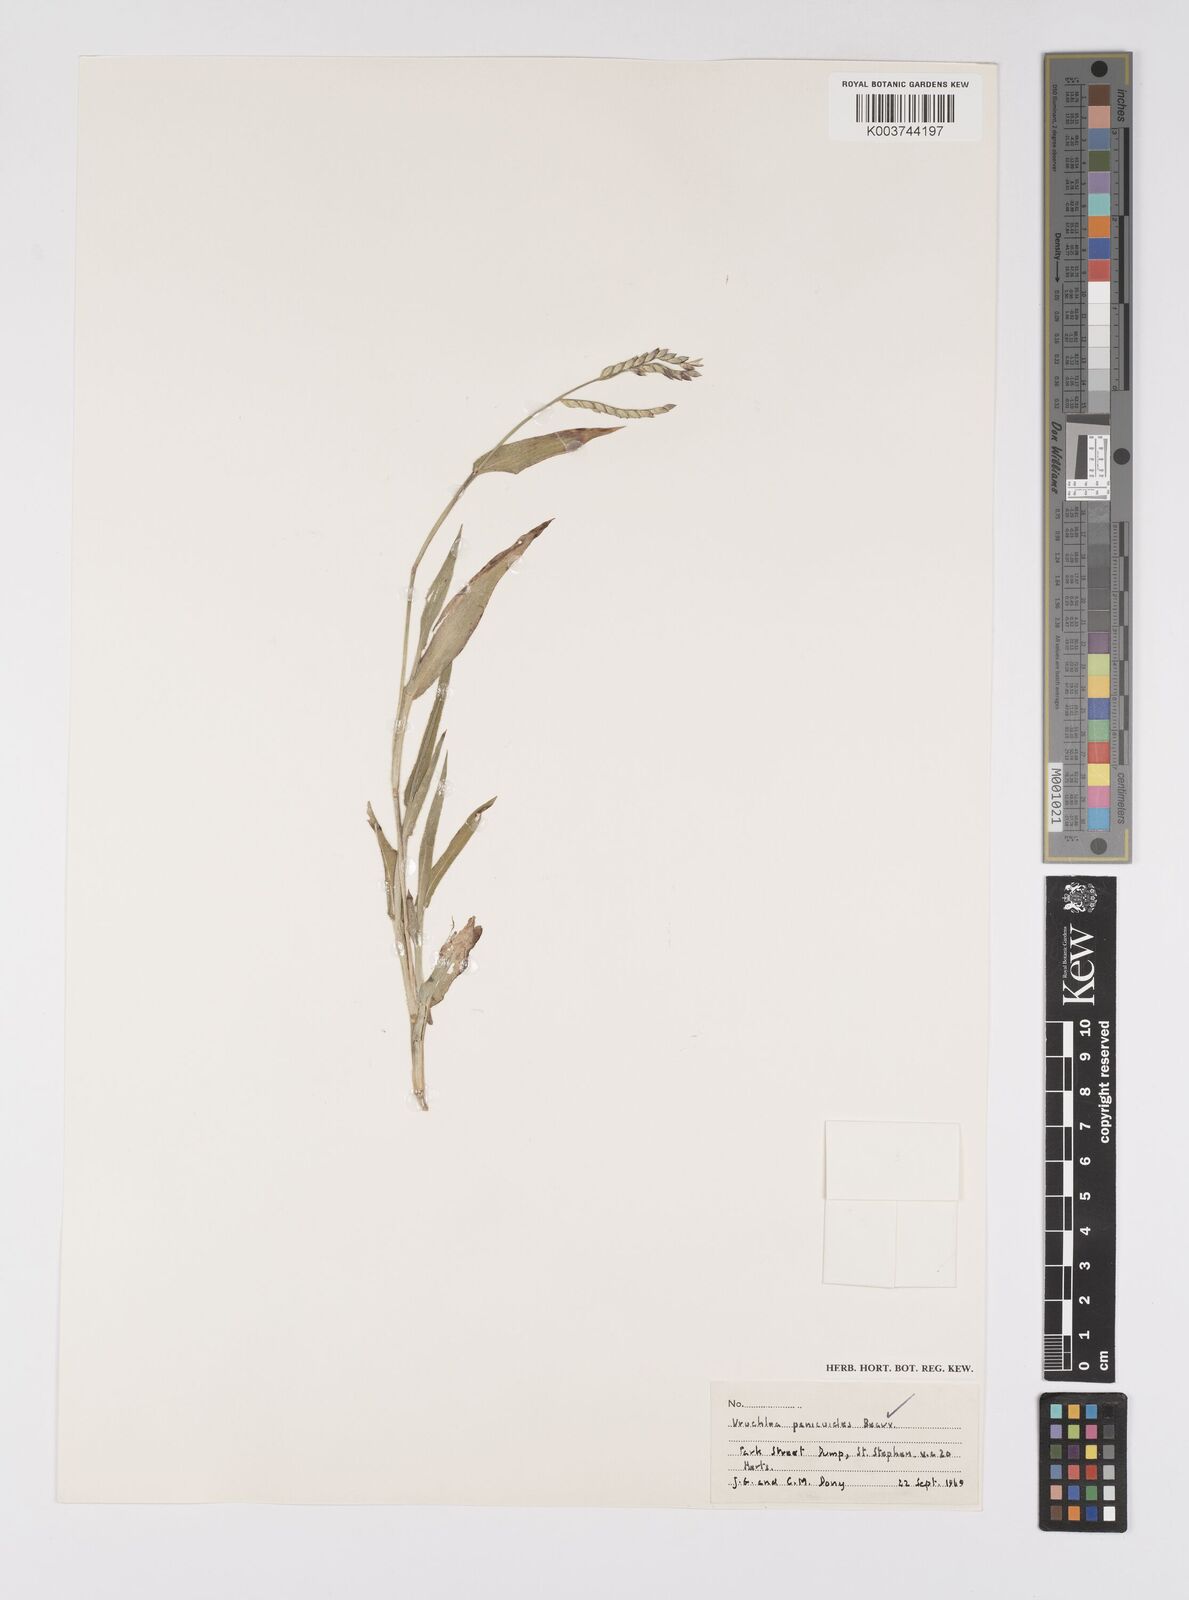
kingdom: Plantae
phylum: Tracheophyta
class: Liliopsida
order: Poales
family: Poaceae
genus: Urochloa
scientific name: Urochloa panicoides
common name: Sharp-flowered signal-grass
